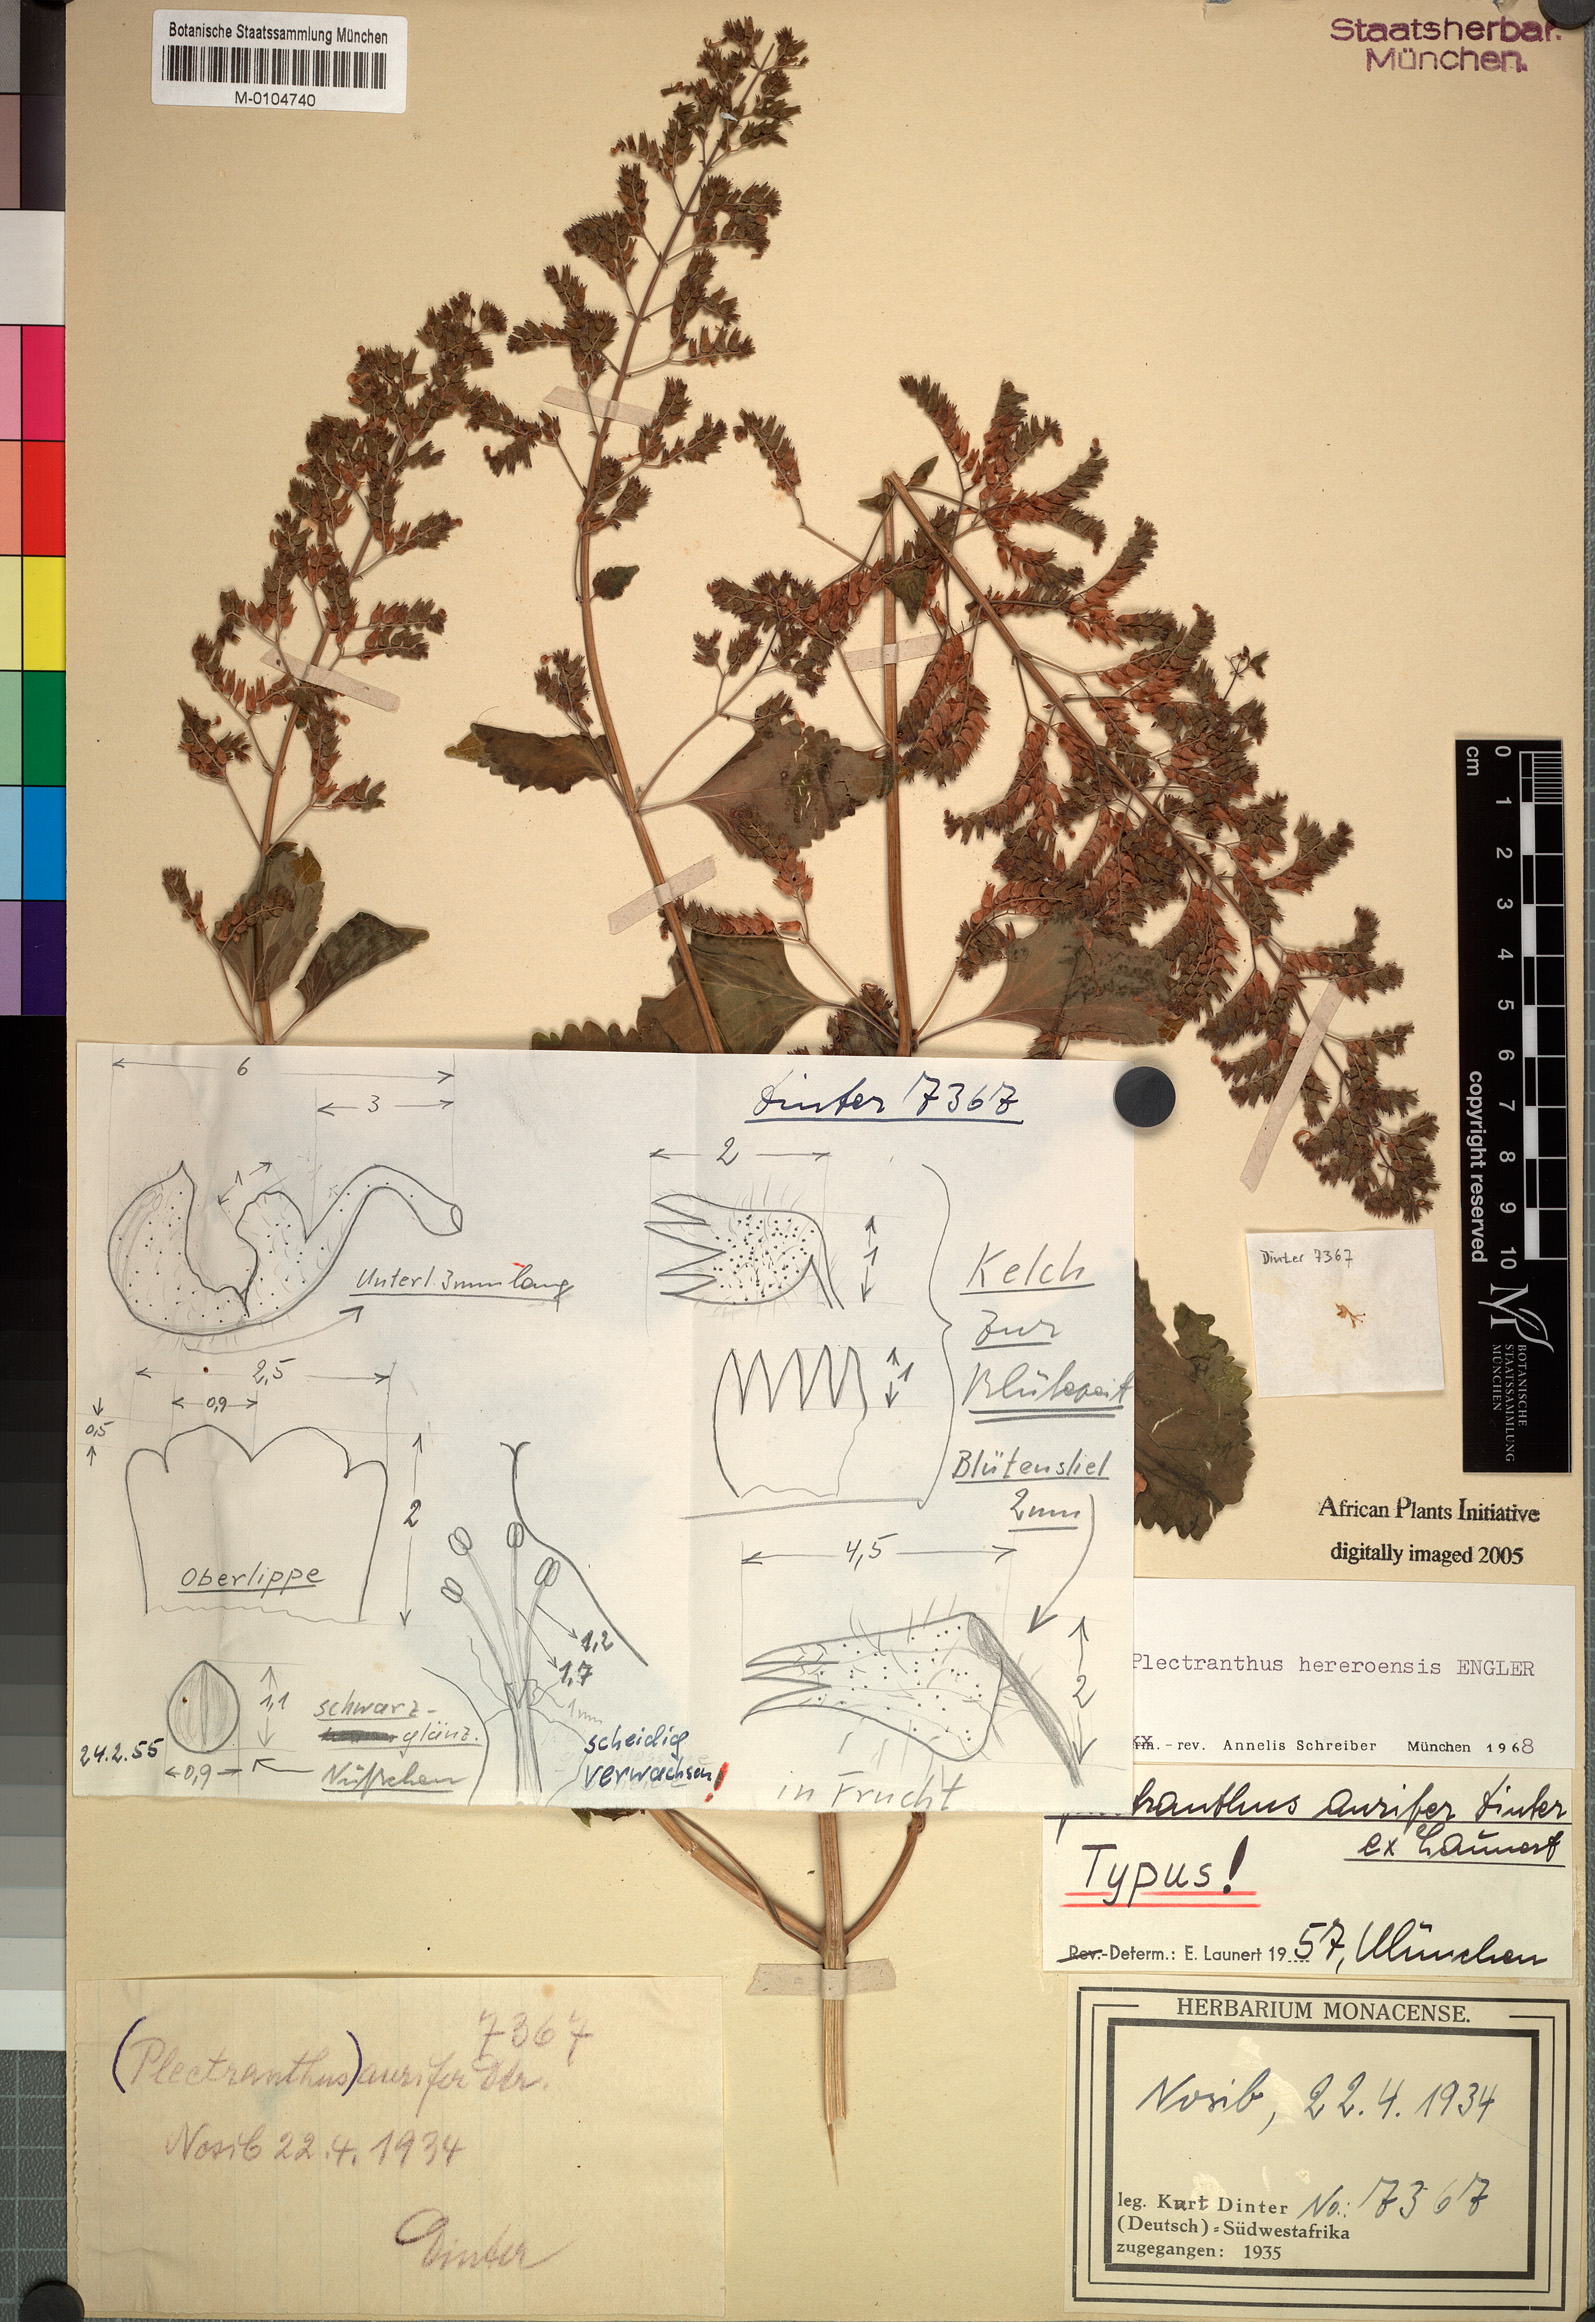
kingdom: Plantae
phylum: Tracheophyta
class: Magnoliopsida
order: Lamiales
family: Lamiaceae
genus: Coleus
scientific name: Coleus hereroensis
